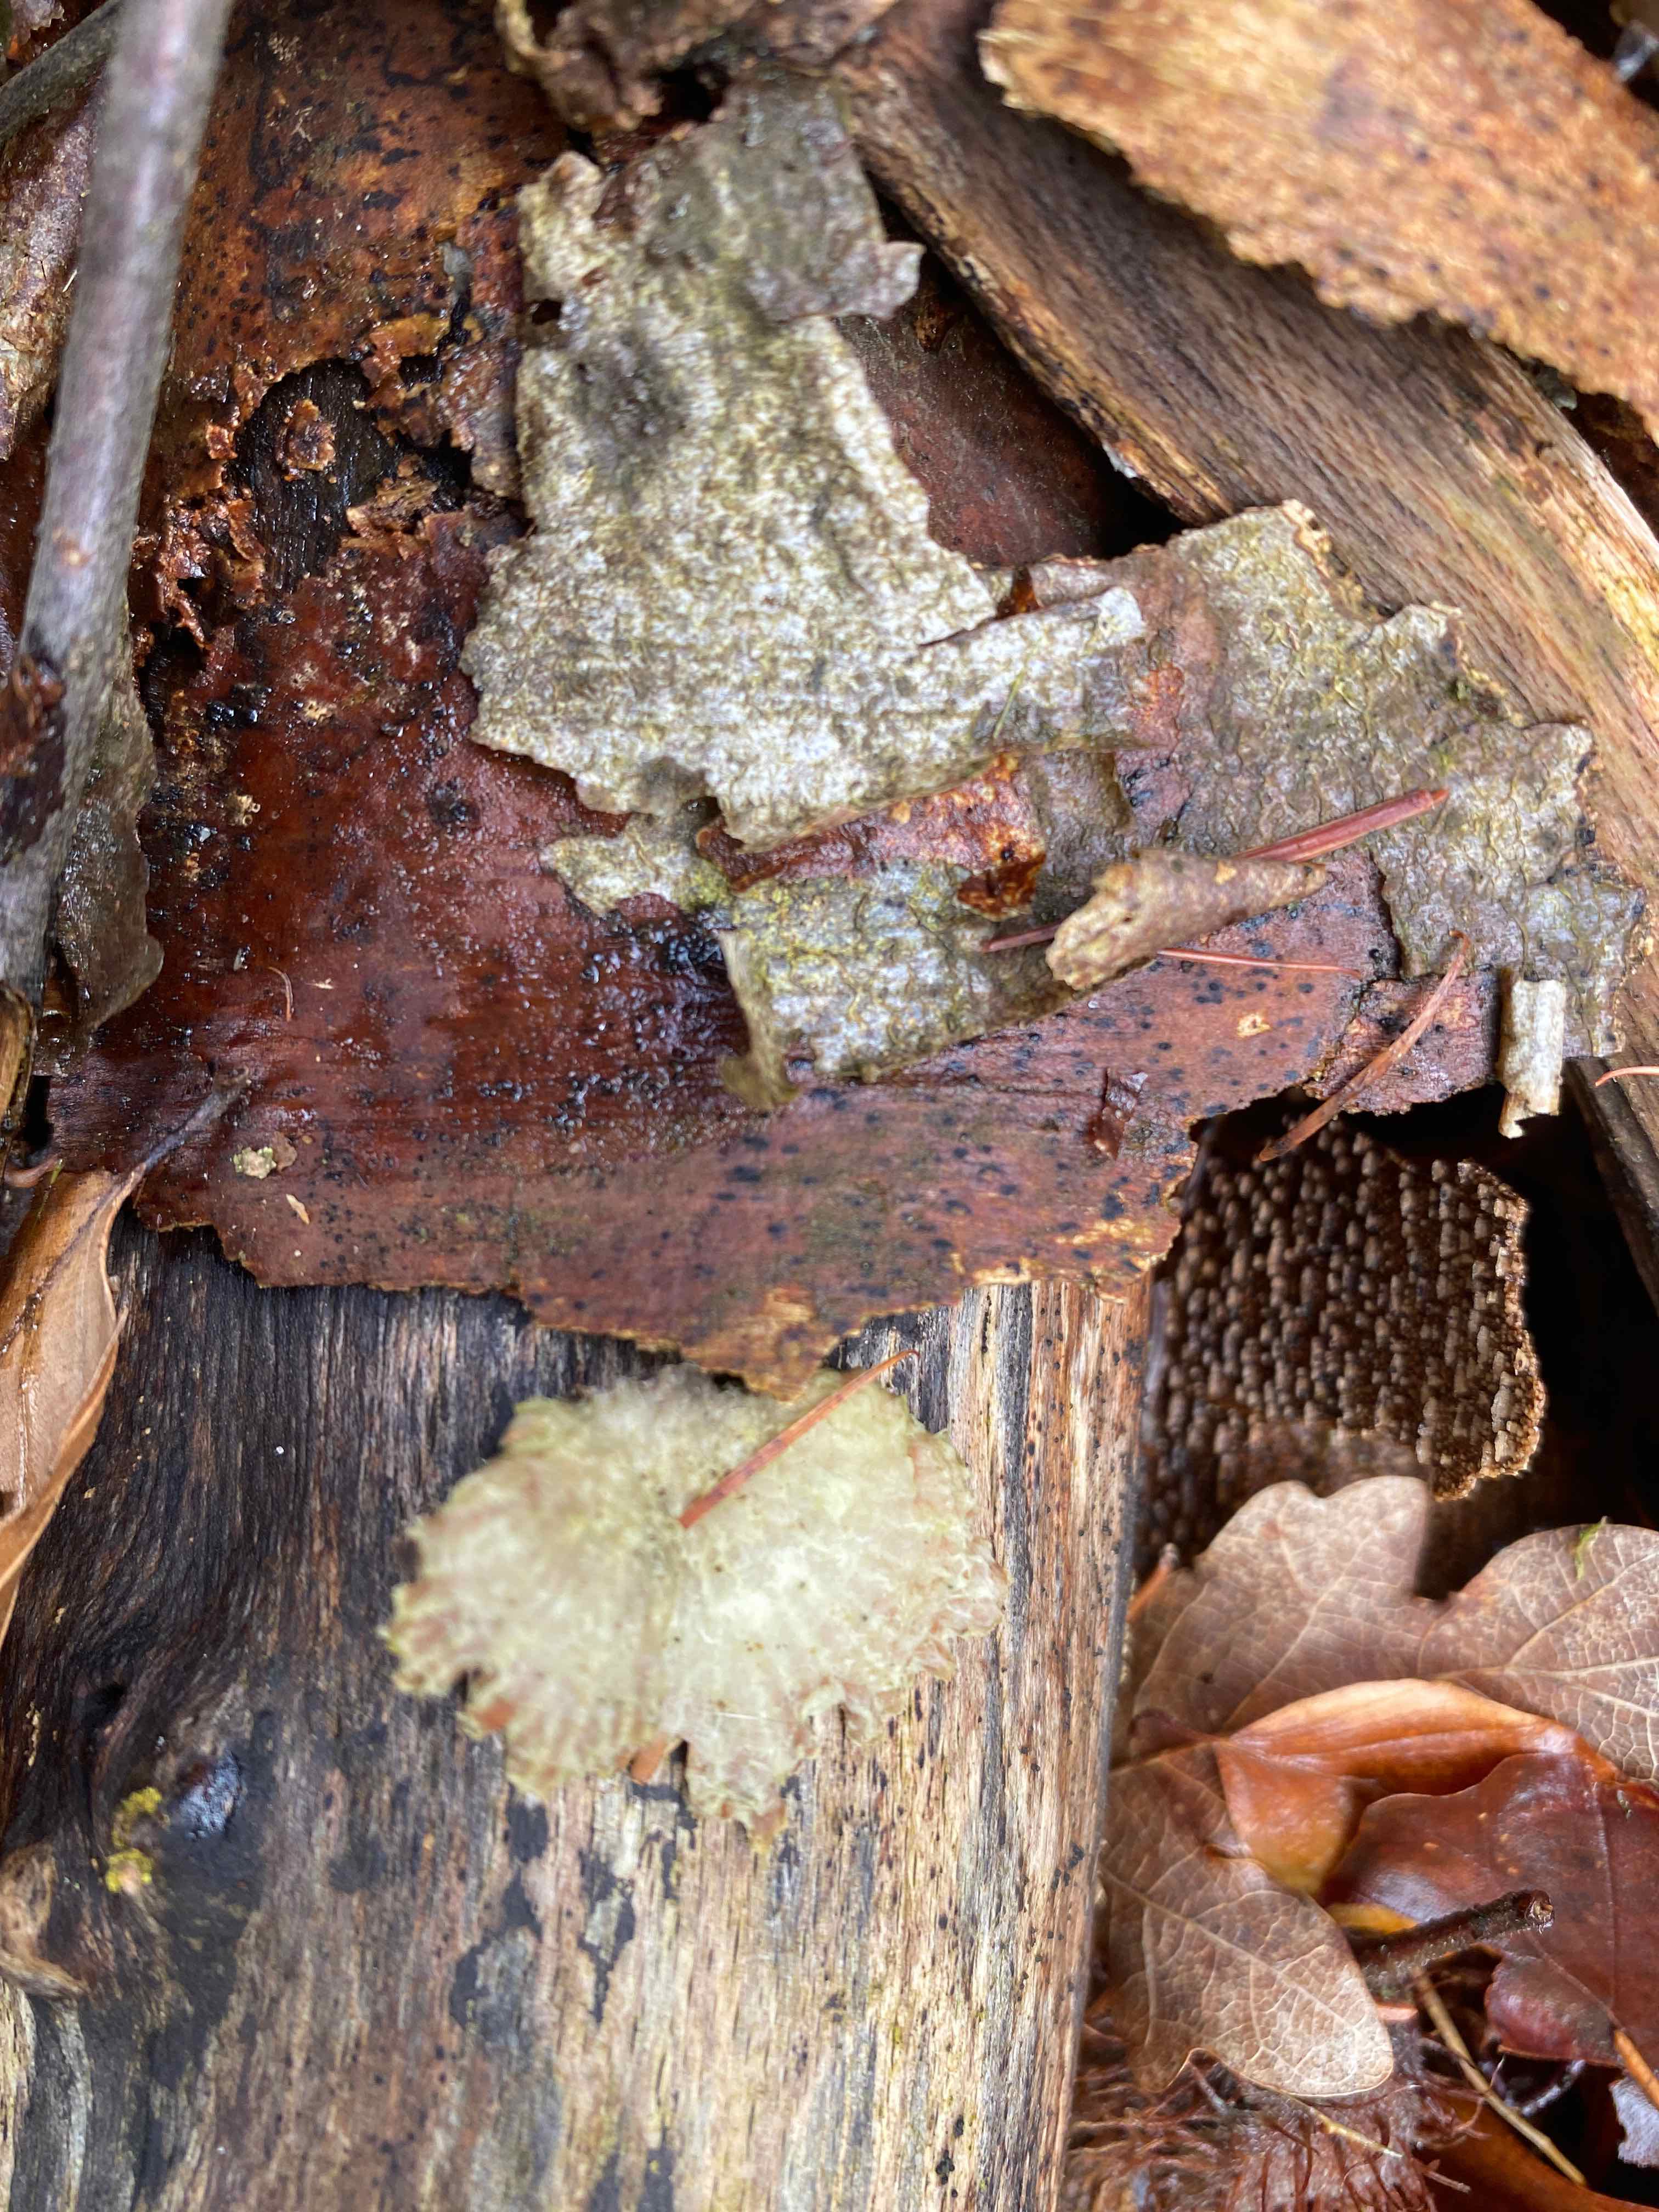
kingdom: Fungi
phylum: Basidiomycota
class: Agaricomycetes
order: Agaricales
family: Schizophyllaceae
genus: Schizophyllum
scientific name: Schizophyllum commune
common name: kløvblad
